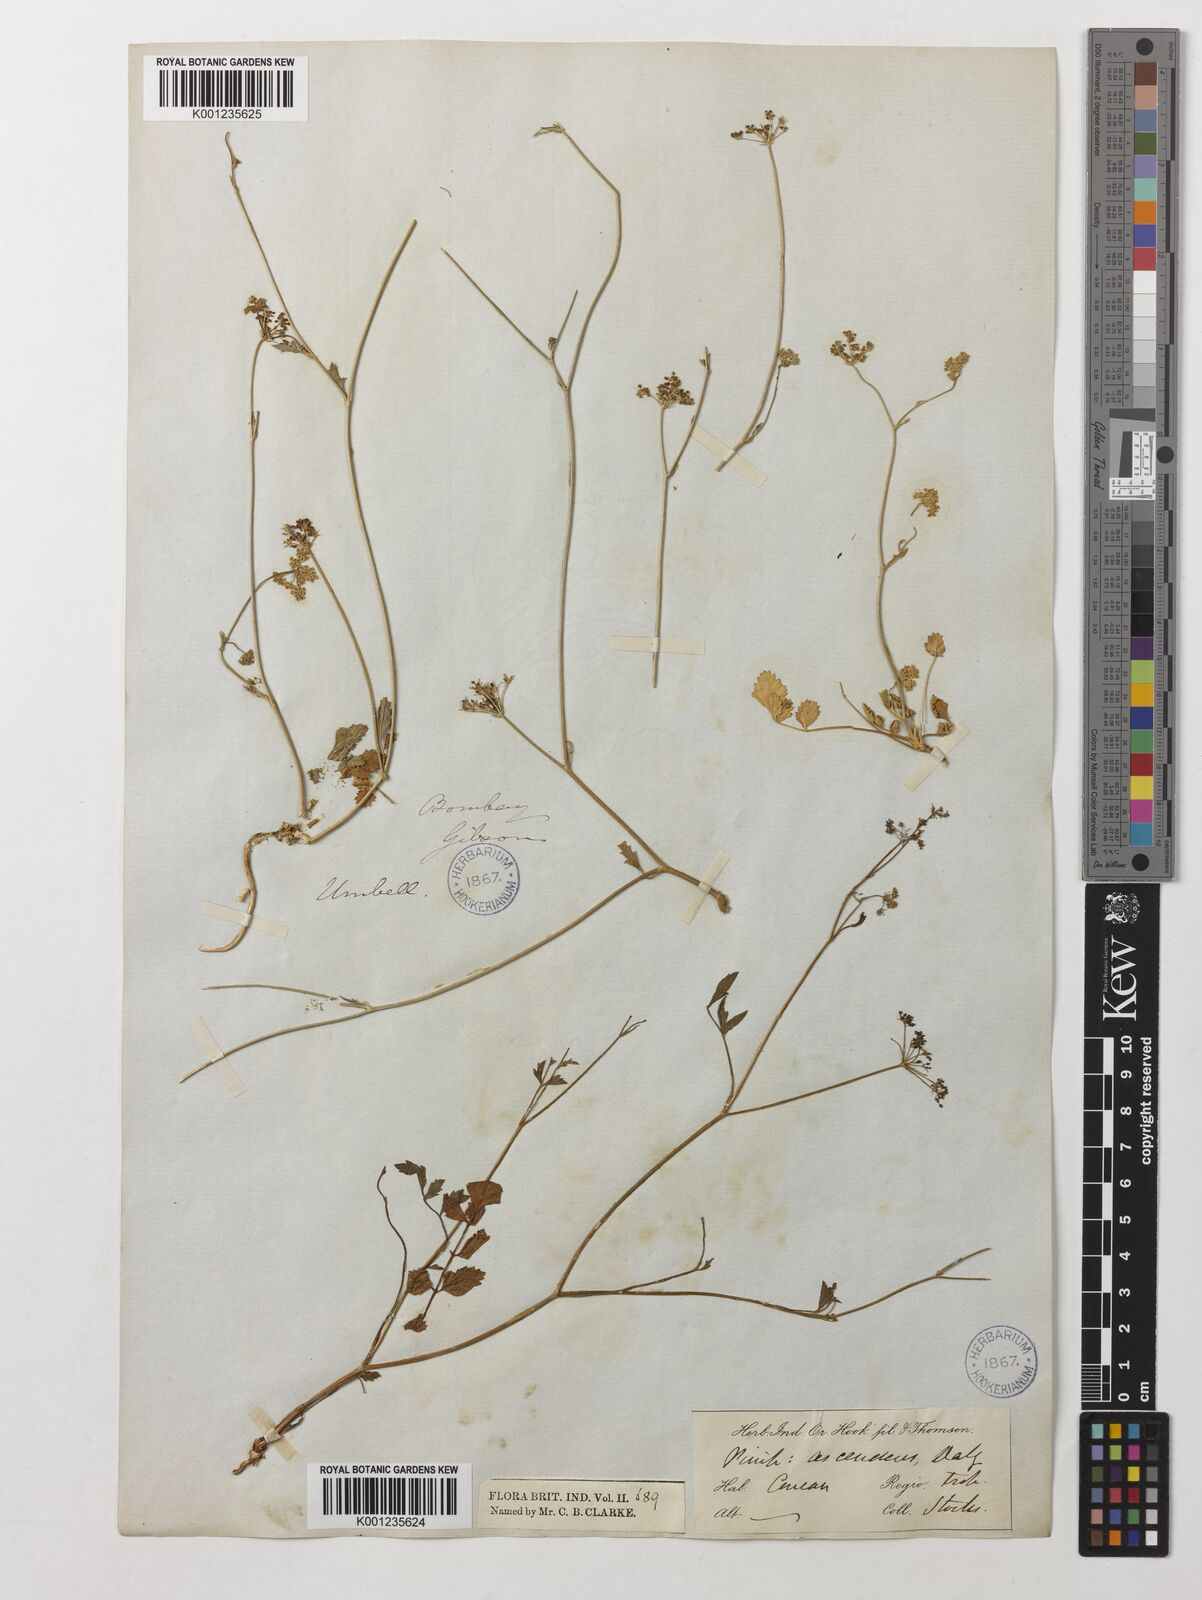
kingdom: Plantae
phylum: Tracheophyta
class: Magnoliopsida
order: Apiales
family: Apiaceae
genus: Pimpinella
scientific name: Pimpinella adscendens
